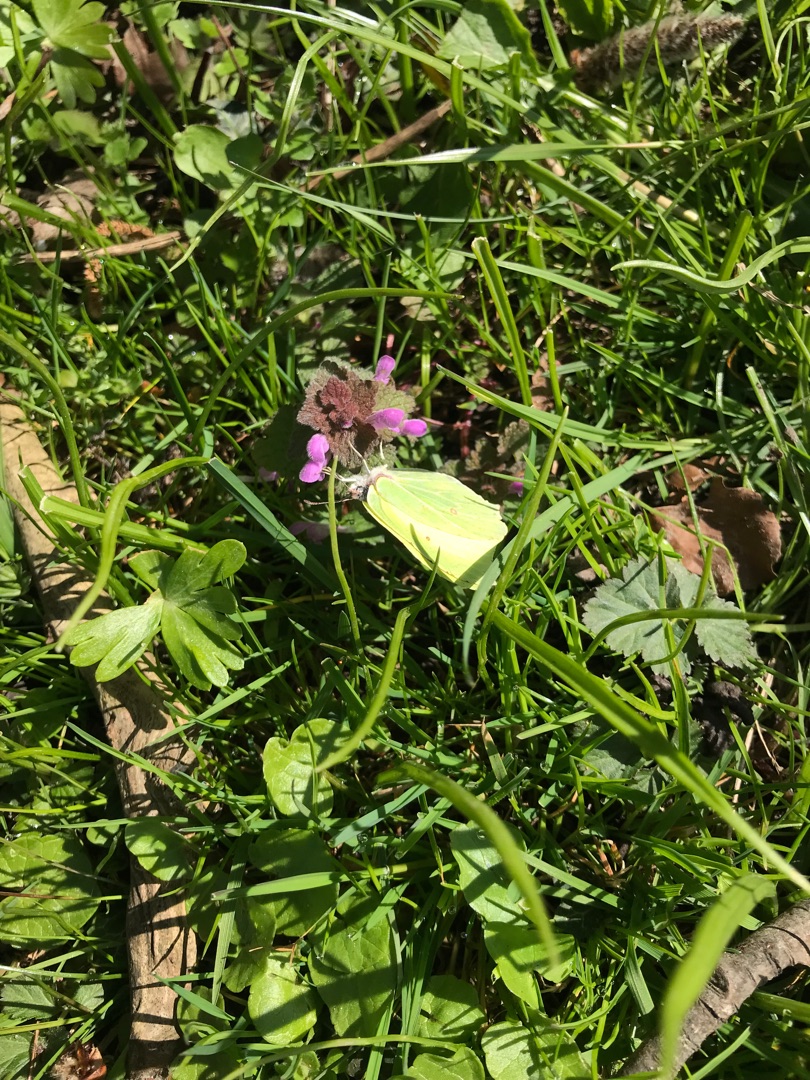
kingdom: Animalia
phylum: Arthropoda
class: Insecta
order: Lepidoptera
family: Pieridae
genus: Gonepteryx
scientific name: Gonepteryx rhamni
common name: Citronsommerfugl
